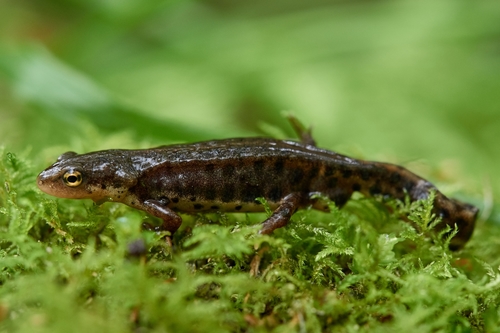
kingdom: Animalia
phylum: Chordata
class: Amphibia
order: Caudata
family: Salamandridae
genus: Lissotriton
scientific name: Lissotriton boscai
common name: Bosca's newt
